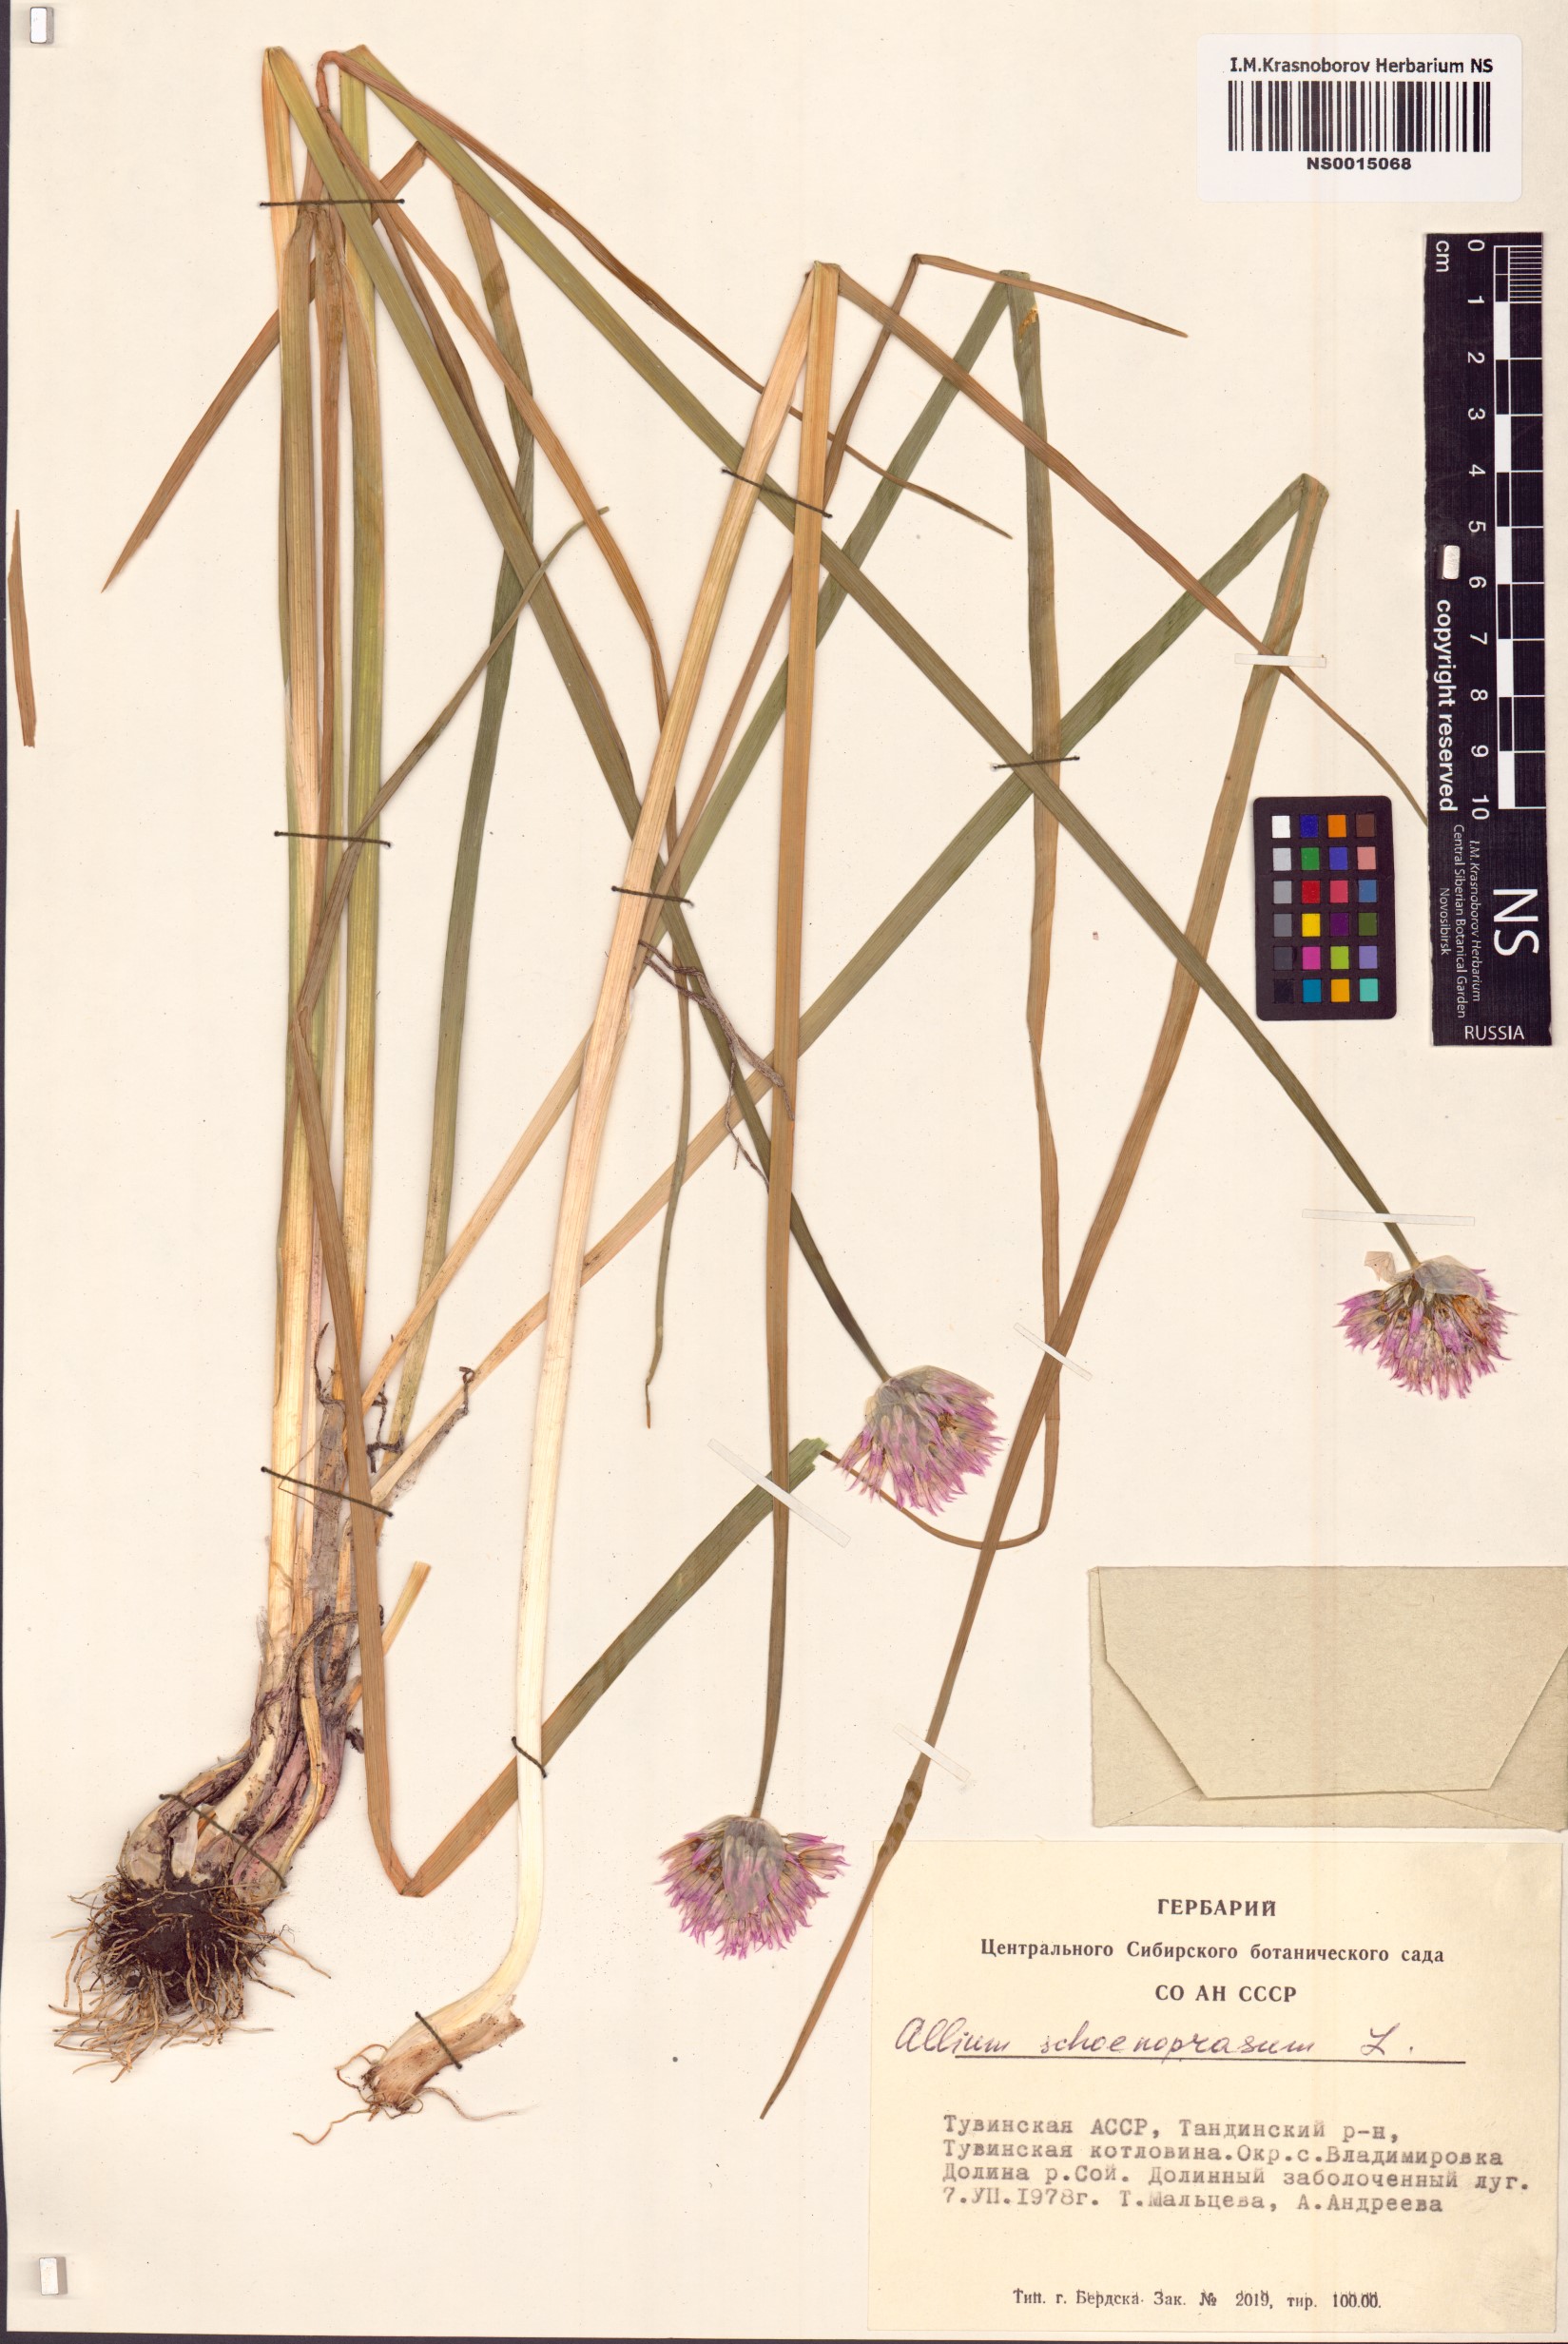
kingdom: Plantae
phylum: Tracheophyta
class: Liliopsida
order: Asparagales
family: Amaryllidaceae
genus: Allium
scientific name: Allium schoenoprasum
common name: Chives
